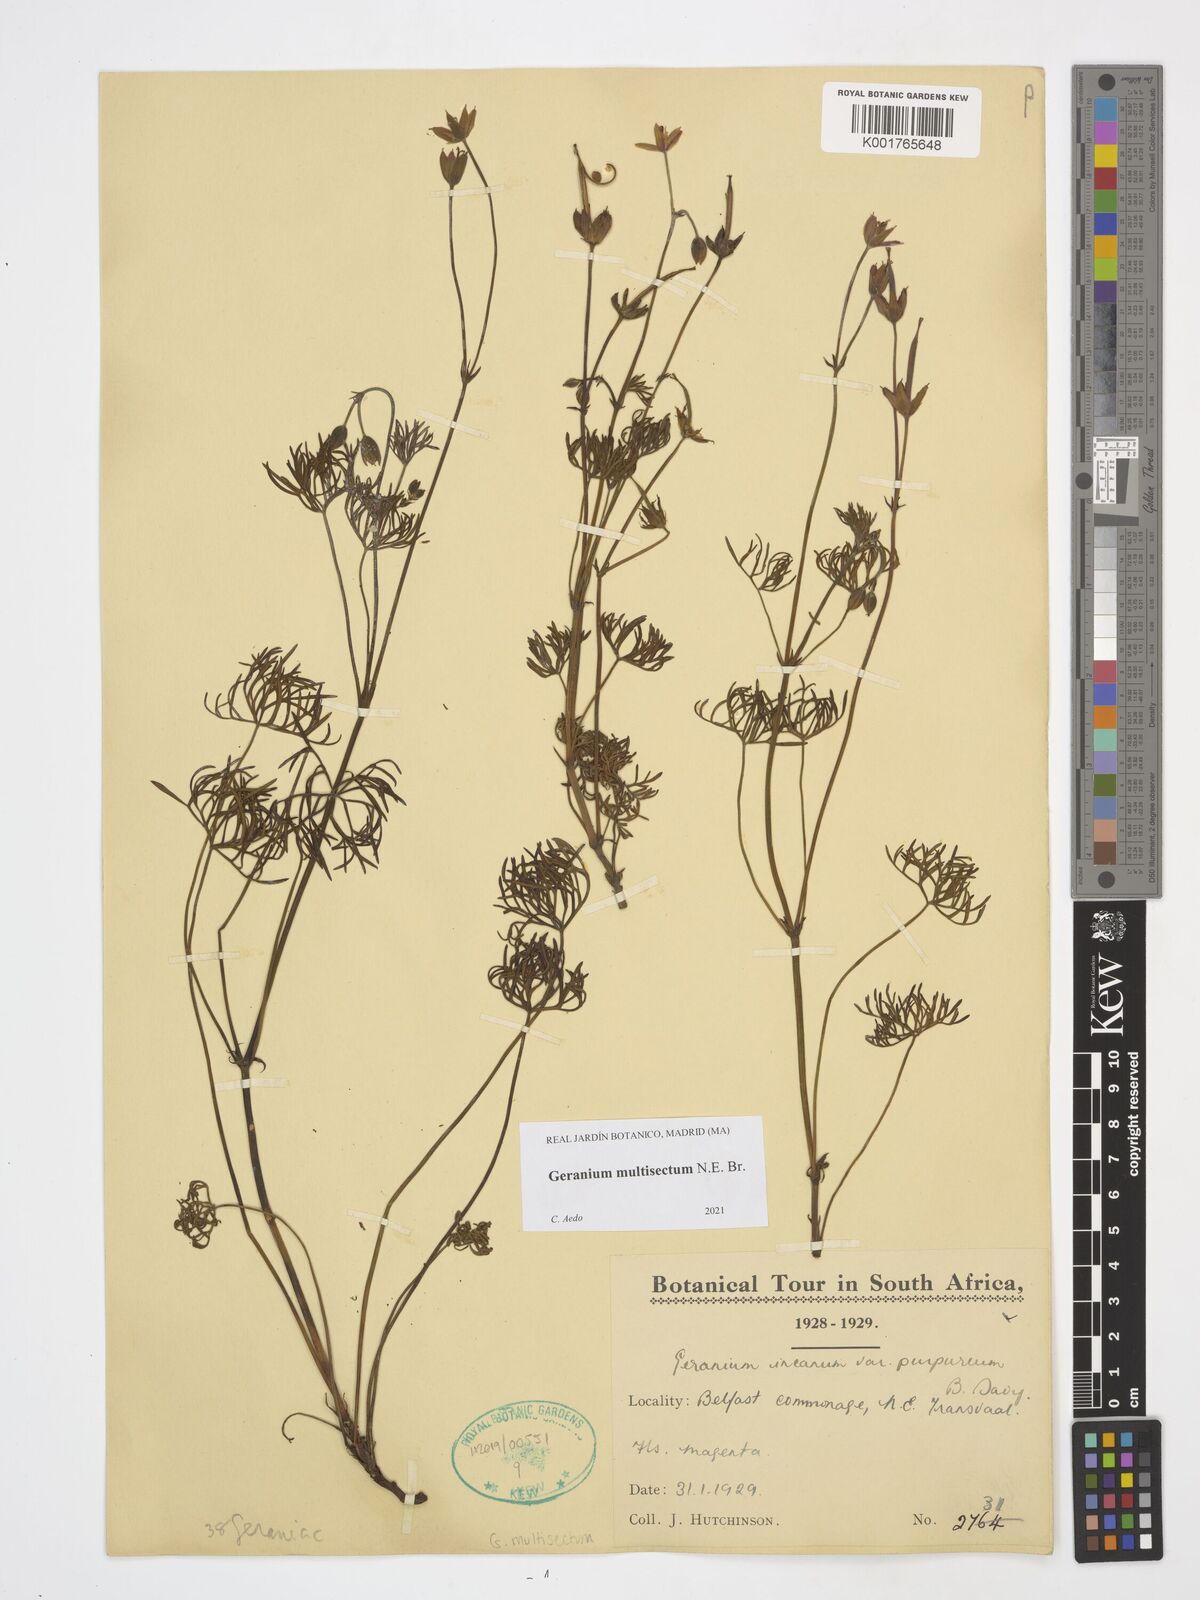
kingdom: Plantae
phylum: Tracheophyta
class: Magnoliopsida
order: Geraniales
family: Geraniaceae
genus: Geranium
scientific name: Geranium multisectum
